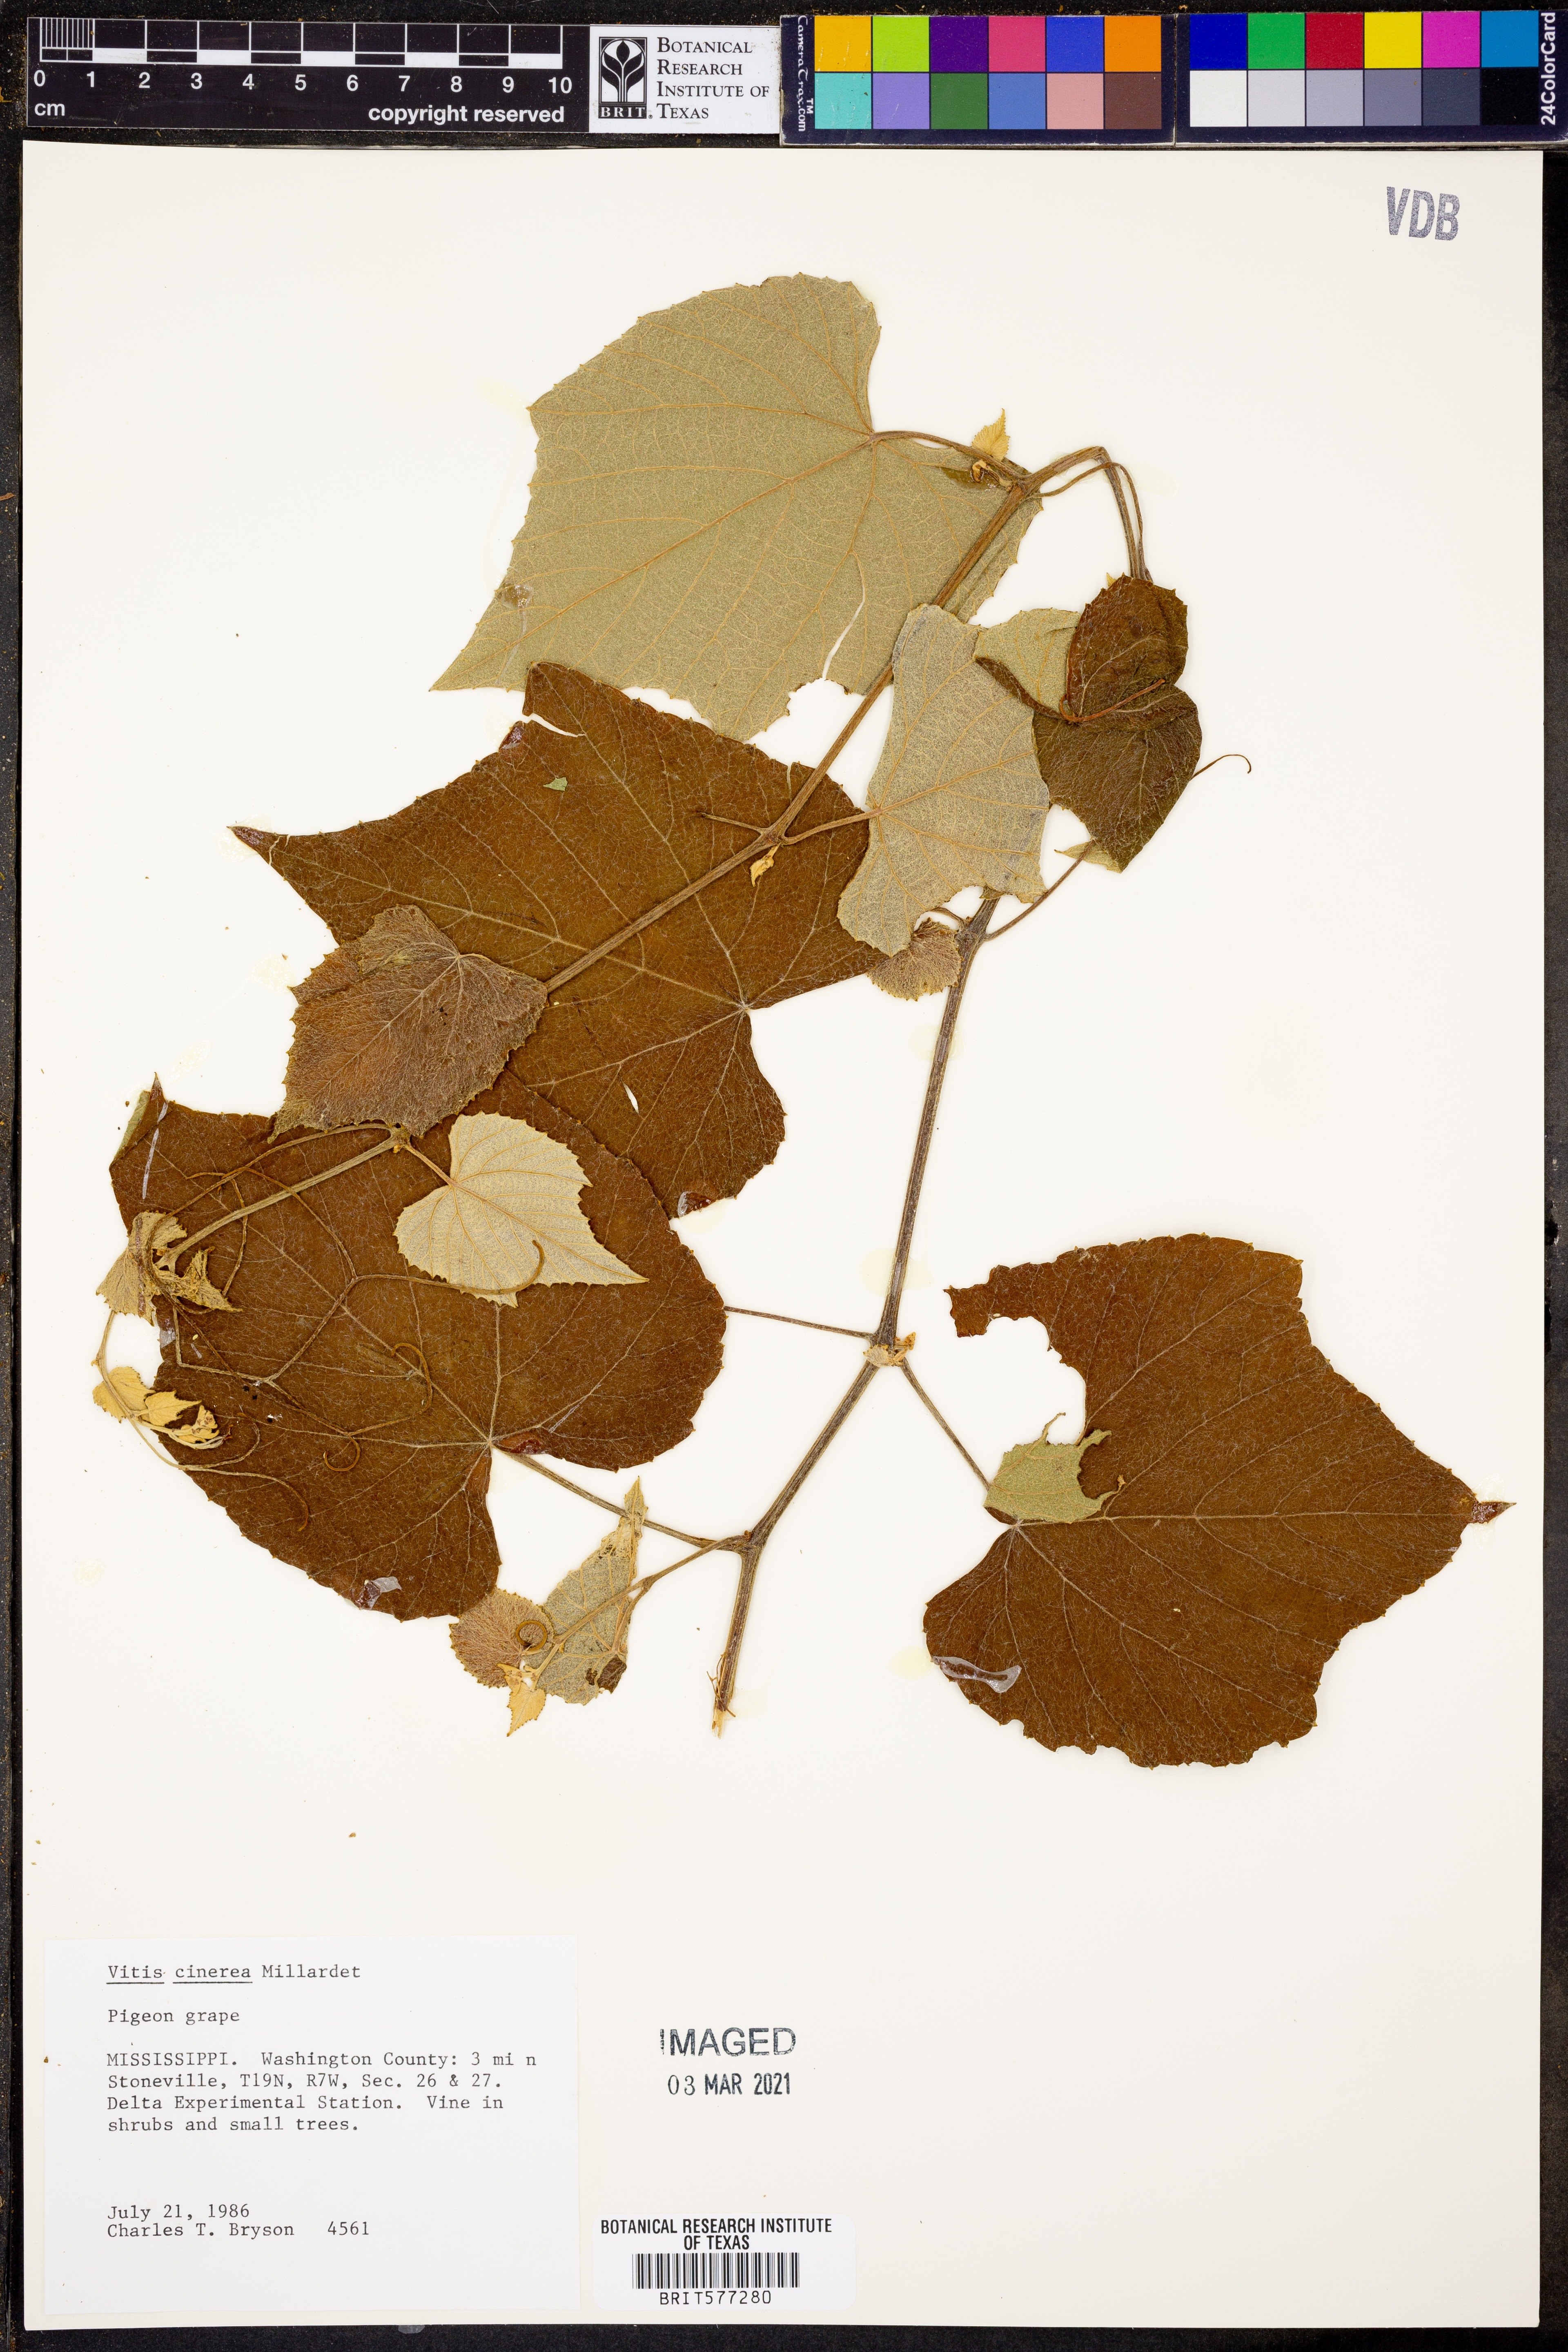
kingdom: Plantae
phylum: Tracheophyta
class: Magnoliopsida
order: Vitales
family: Vitaceae
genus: Vitis
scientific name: Vitis cinerea
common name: Ashy grape
